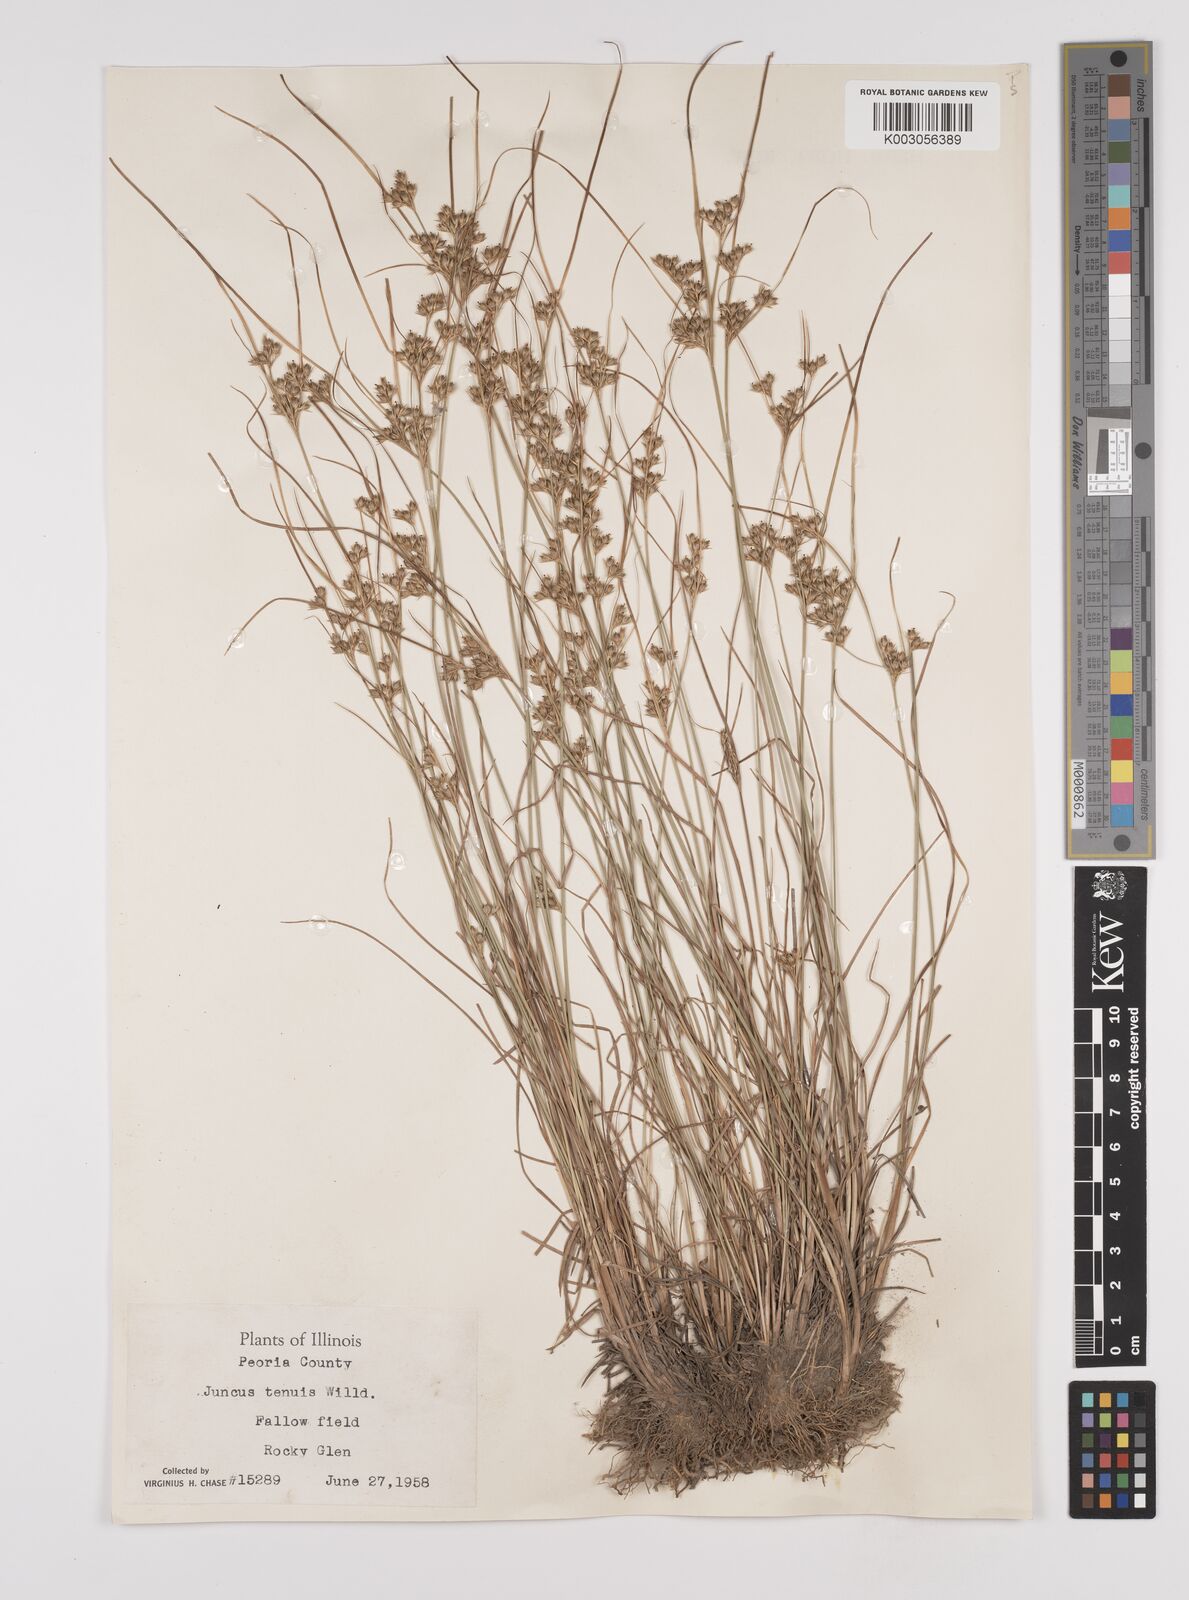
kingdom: Plantae
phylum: Tracheophyta
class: Liliopsida
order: Poales
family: Juncaceae
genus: Juncus
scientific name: Juncus tenuis
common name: Slender rush
